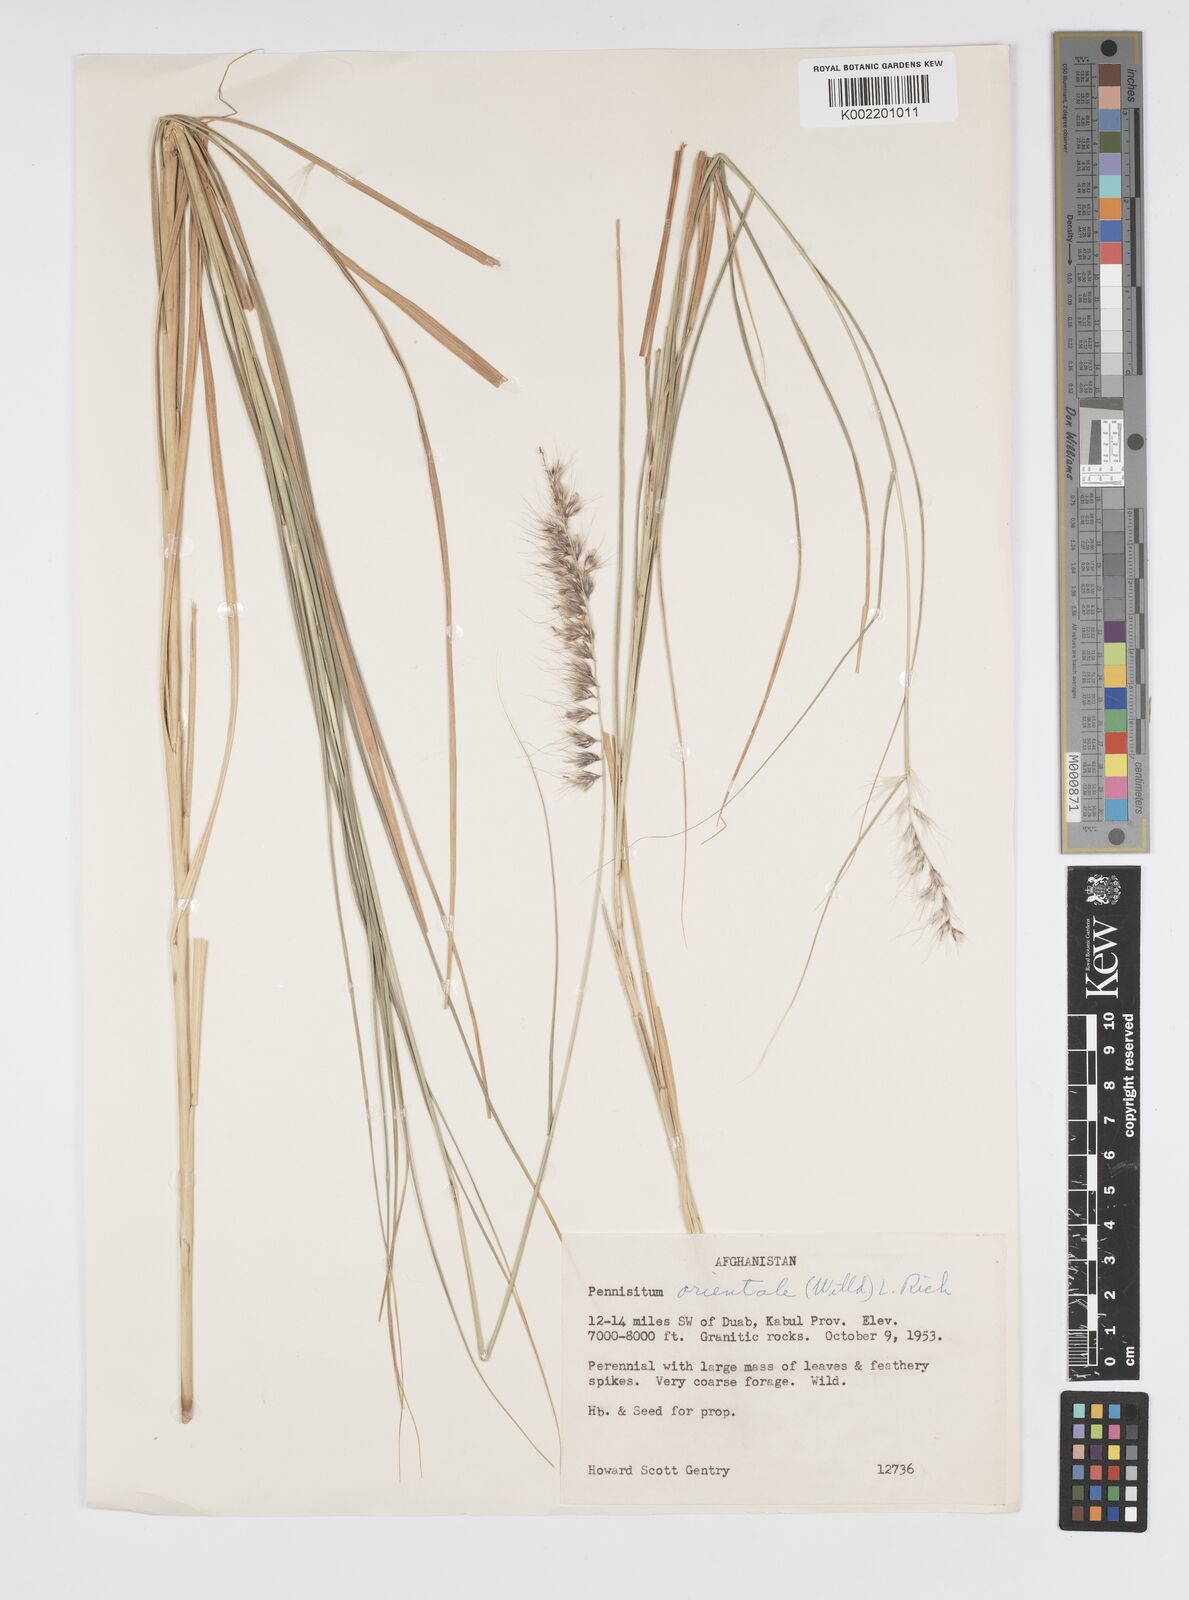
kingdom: Plantae
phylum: Tracheophyta
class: Liliopsida
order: Poales
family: Poaceae
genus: Cenchrus
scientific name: Cenchrus setaceus
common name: Crimson fountaingrass
